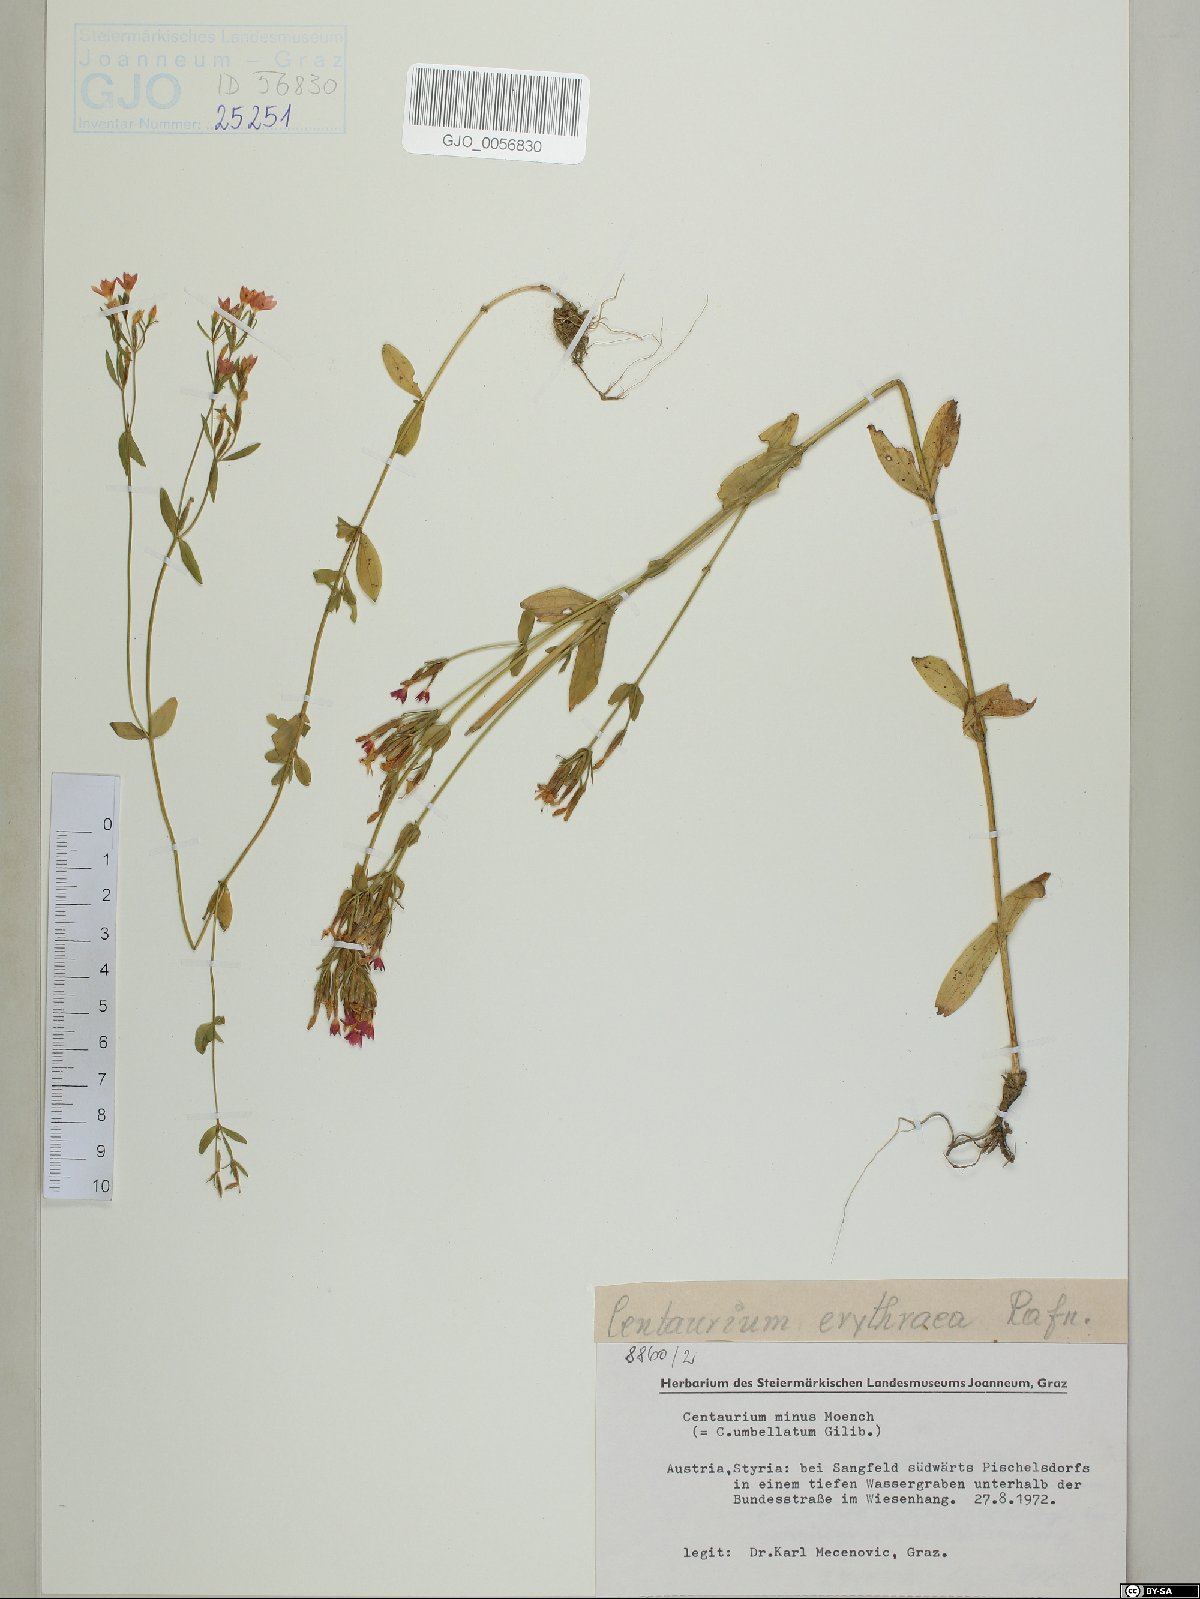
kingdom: Plantae
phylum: Tracheophyta
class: Magnoliopsida
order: Gentianales
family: Gentianaceae
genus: Centaurium
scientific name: Centaurium erythraea
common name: Common centaury
